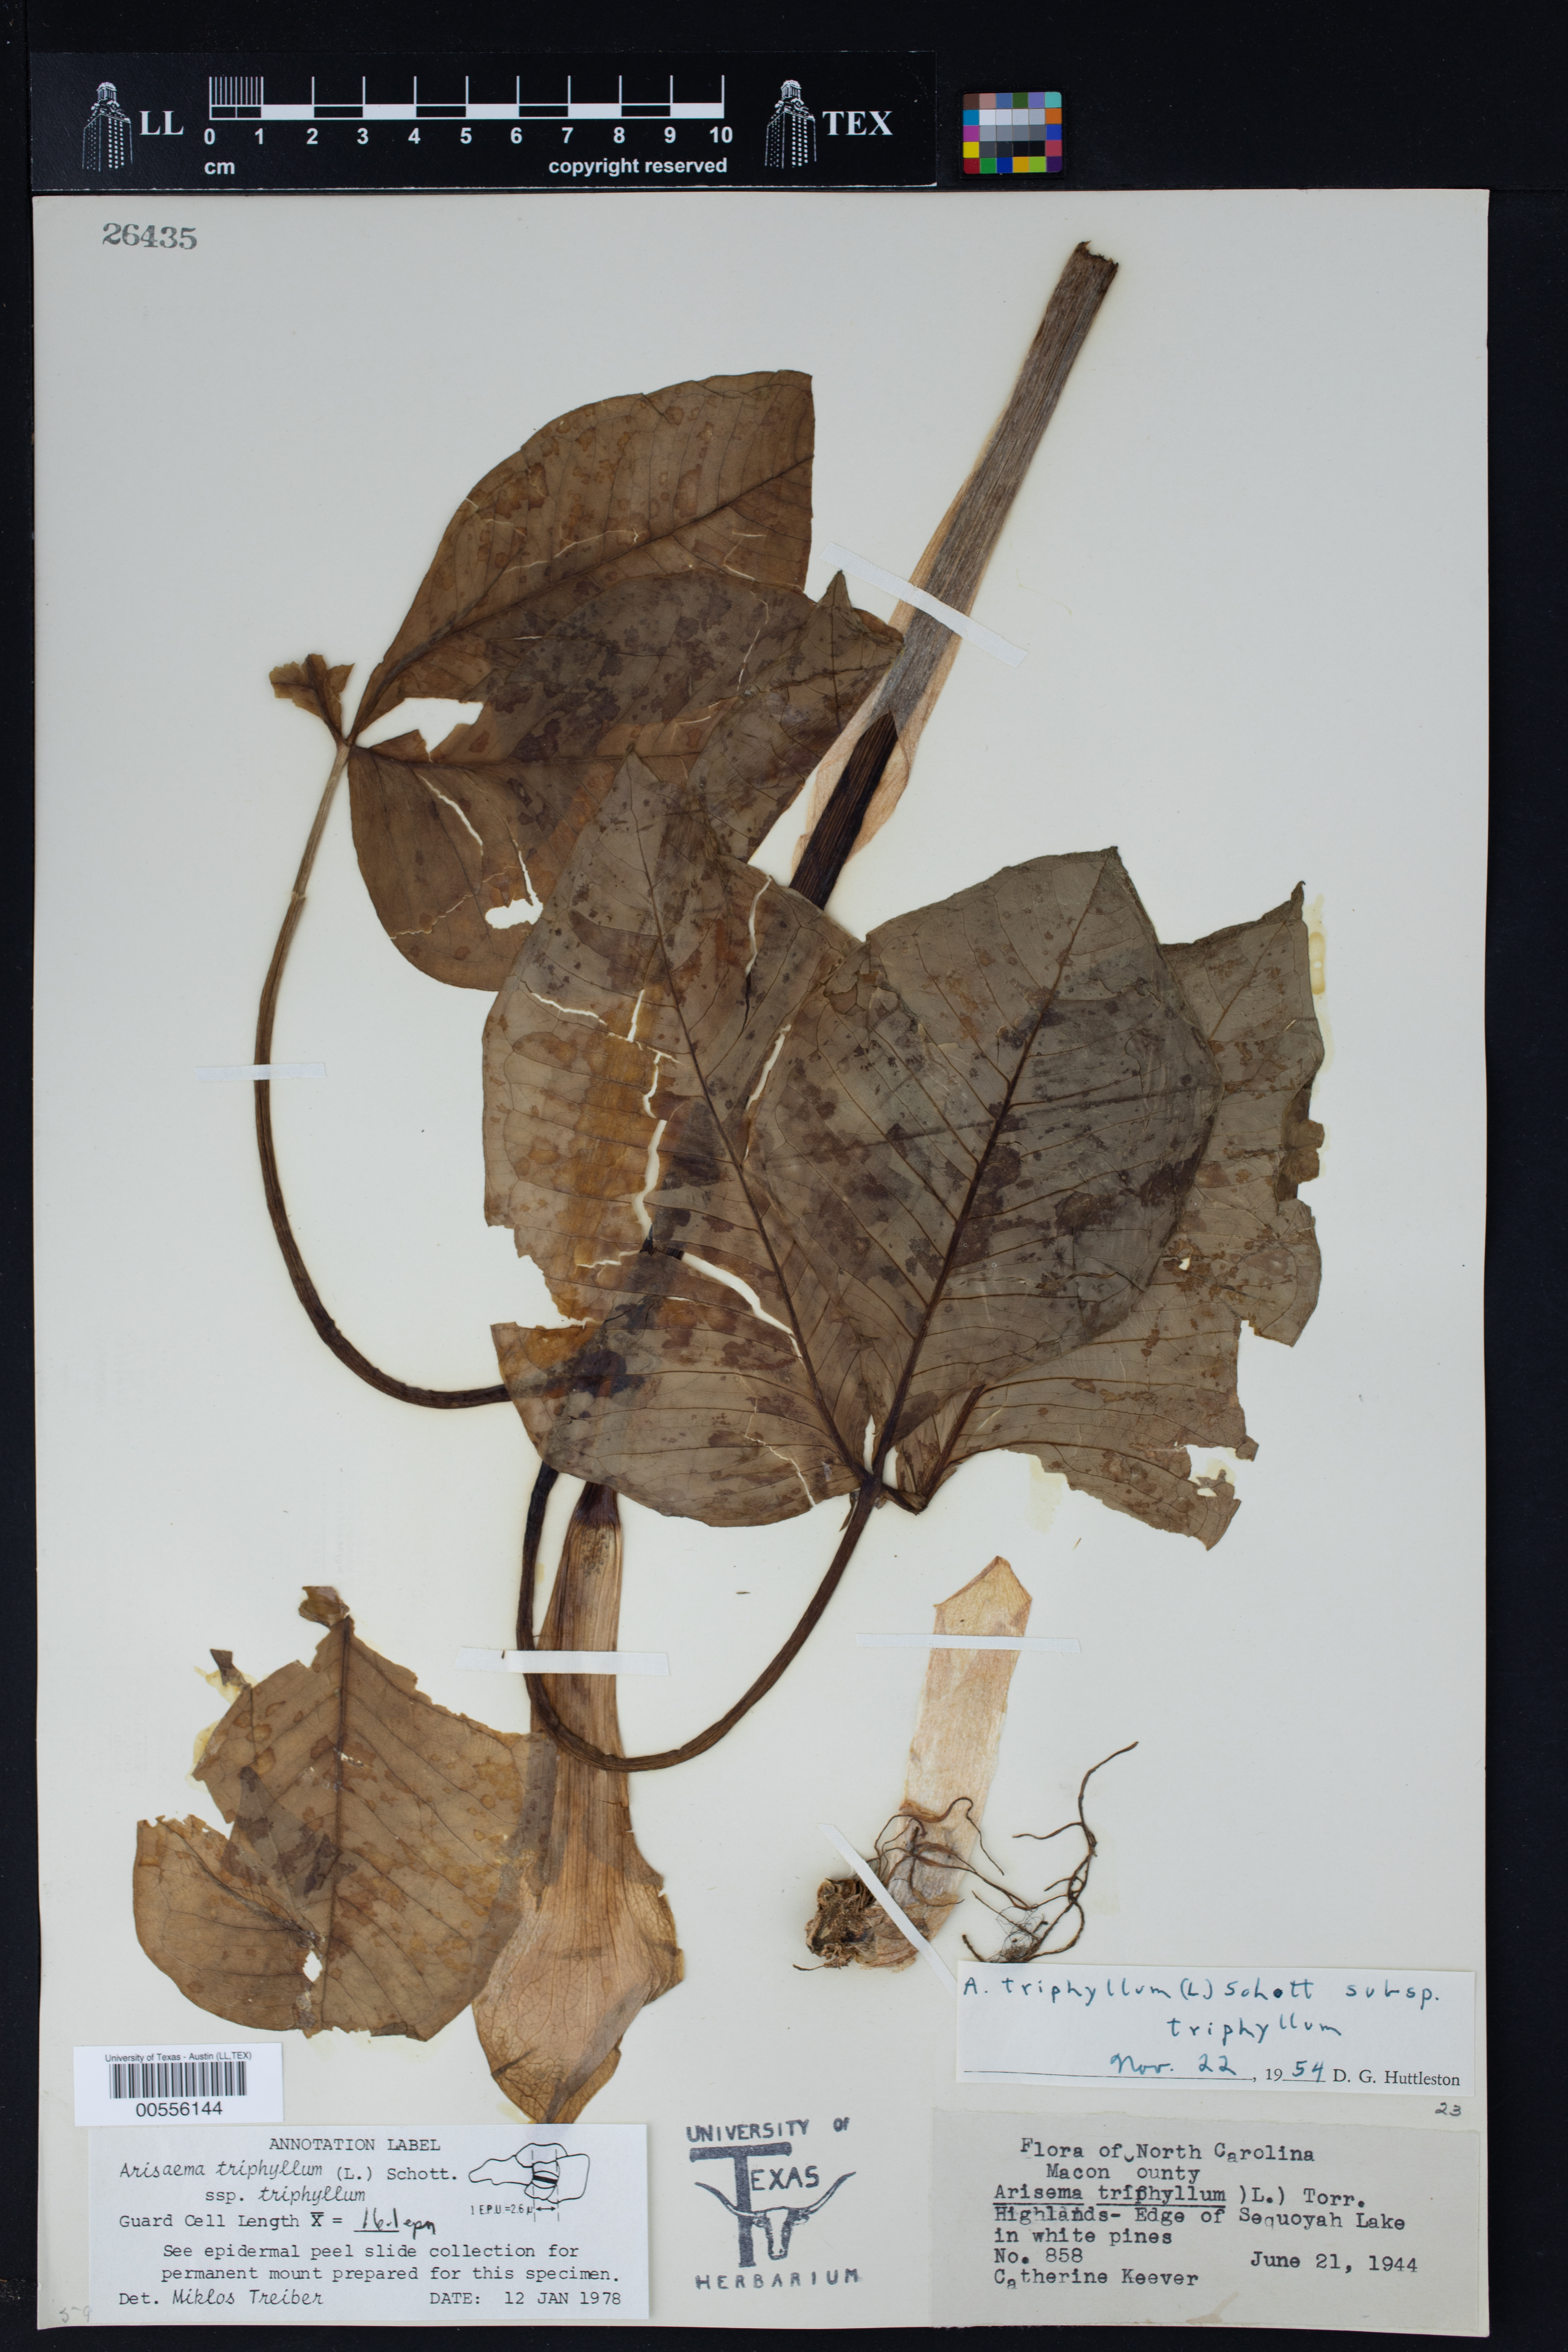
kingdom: Plantae
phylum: Tracheophyta
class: Liliopsida
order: Alismatales
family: Araceae
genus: Arisaema
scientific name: Arisaema triphyllum
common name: Jack-in-the-pulpit
